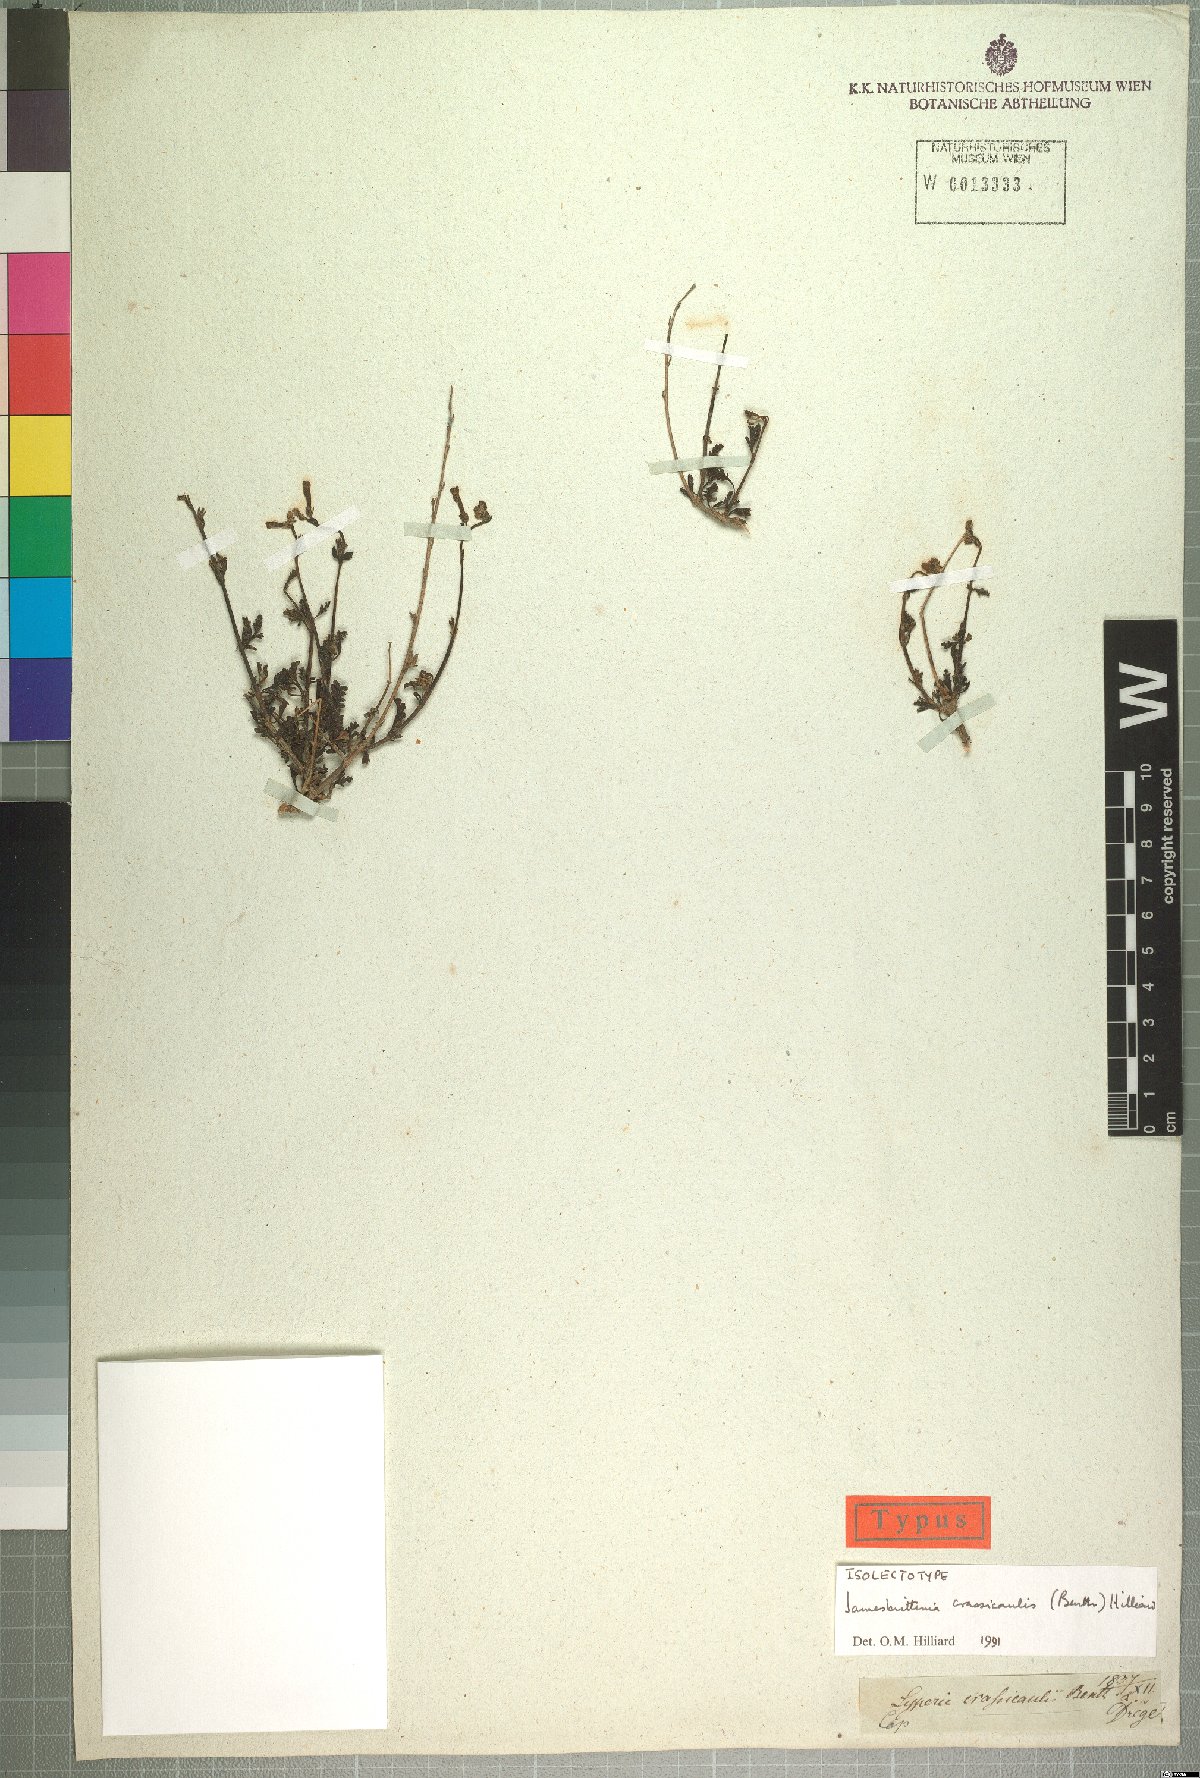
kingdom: Plantae
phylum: Tracheophyta
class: Magnoliopsida
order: Lamiales
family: Scrophulariaceae
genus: Jamesbrittenia
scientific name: Jamesbrittenia crassicaulis
